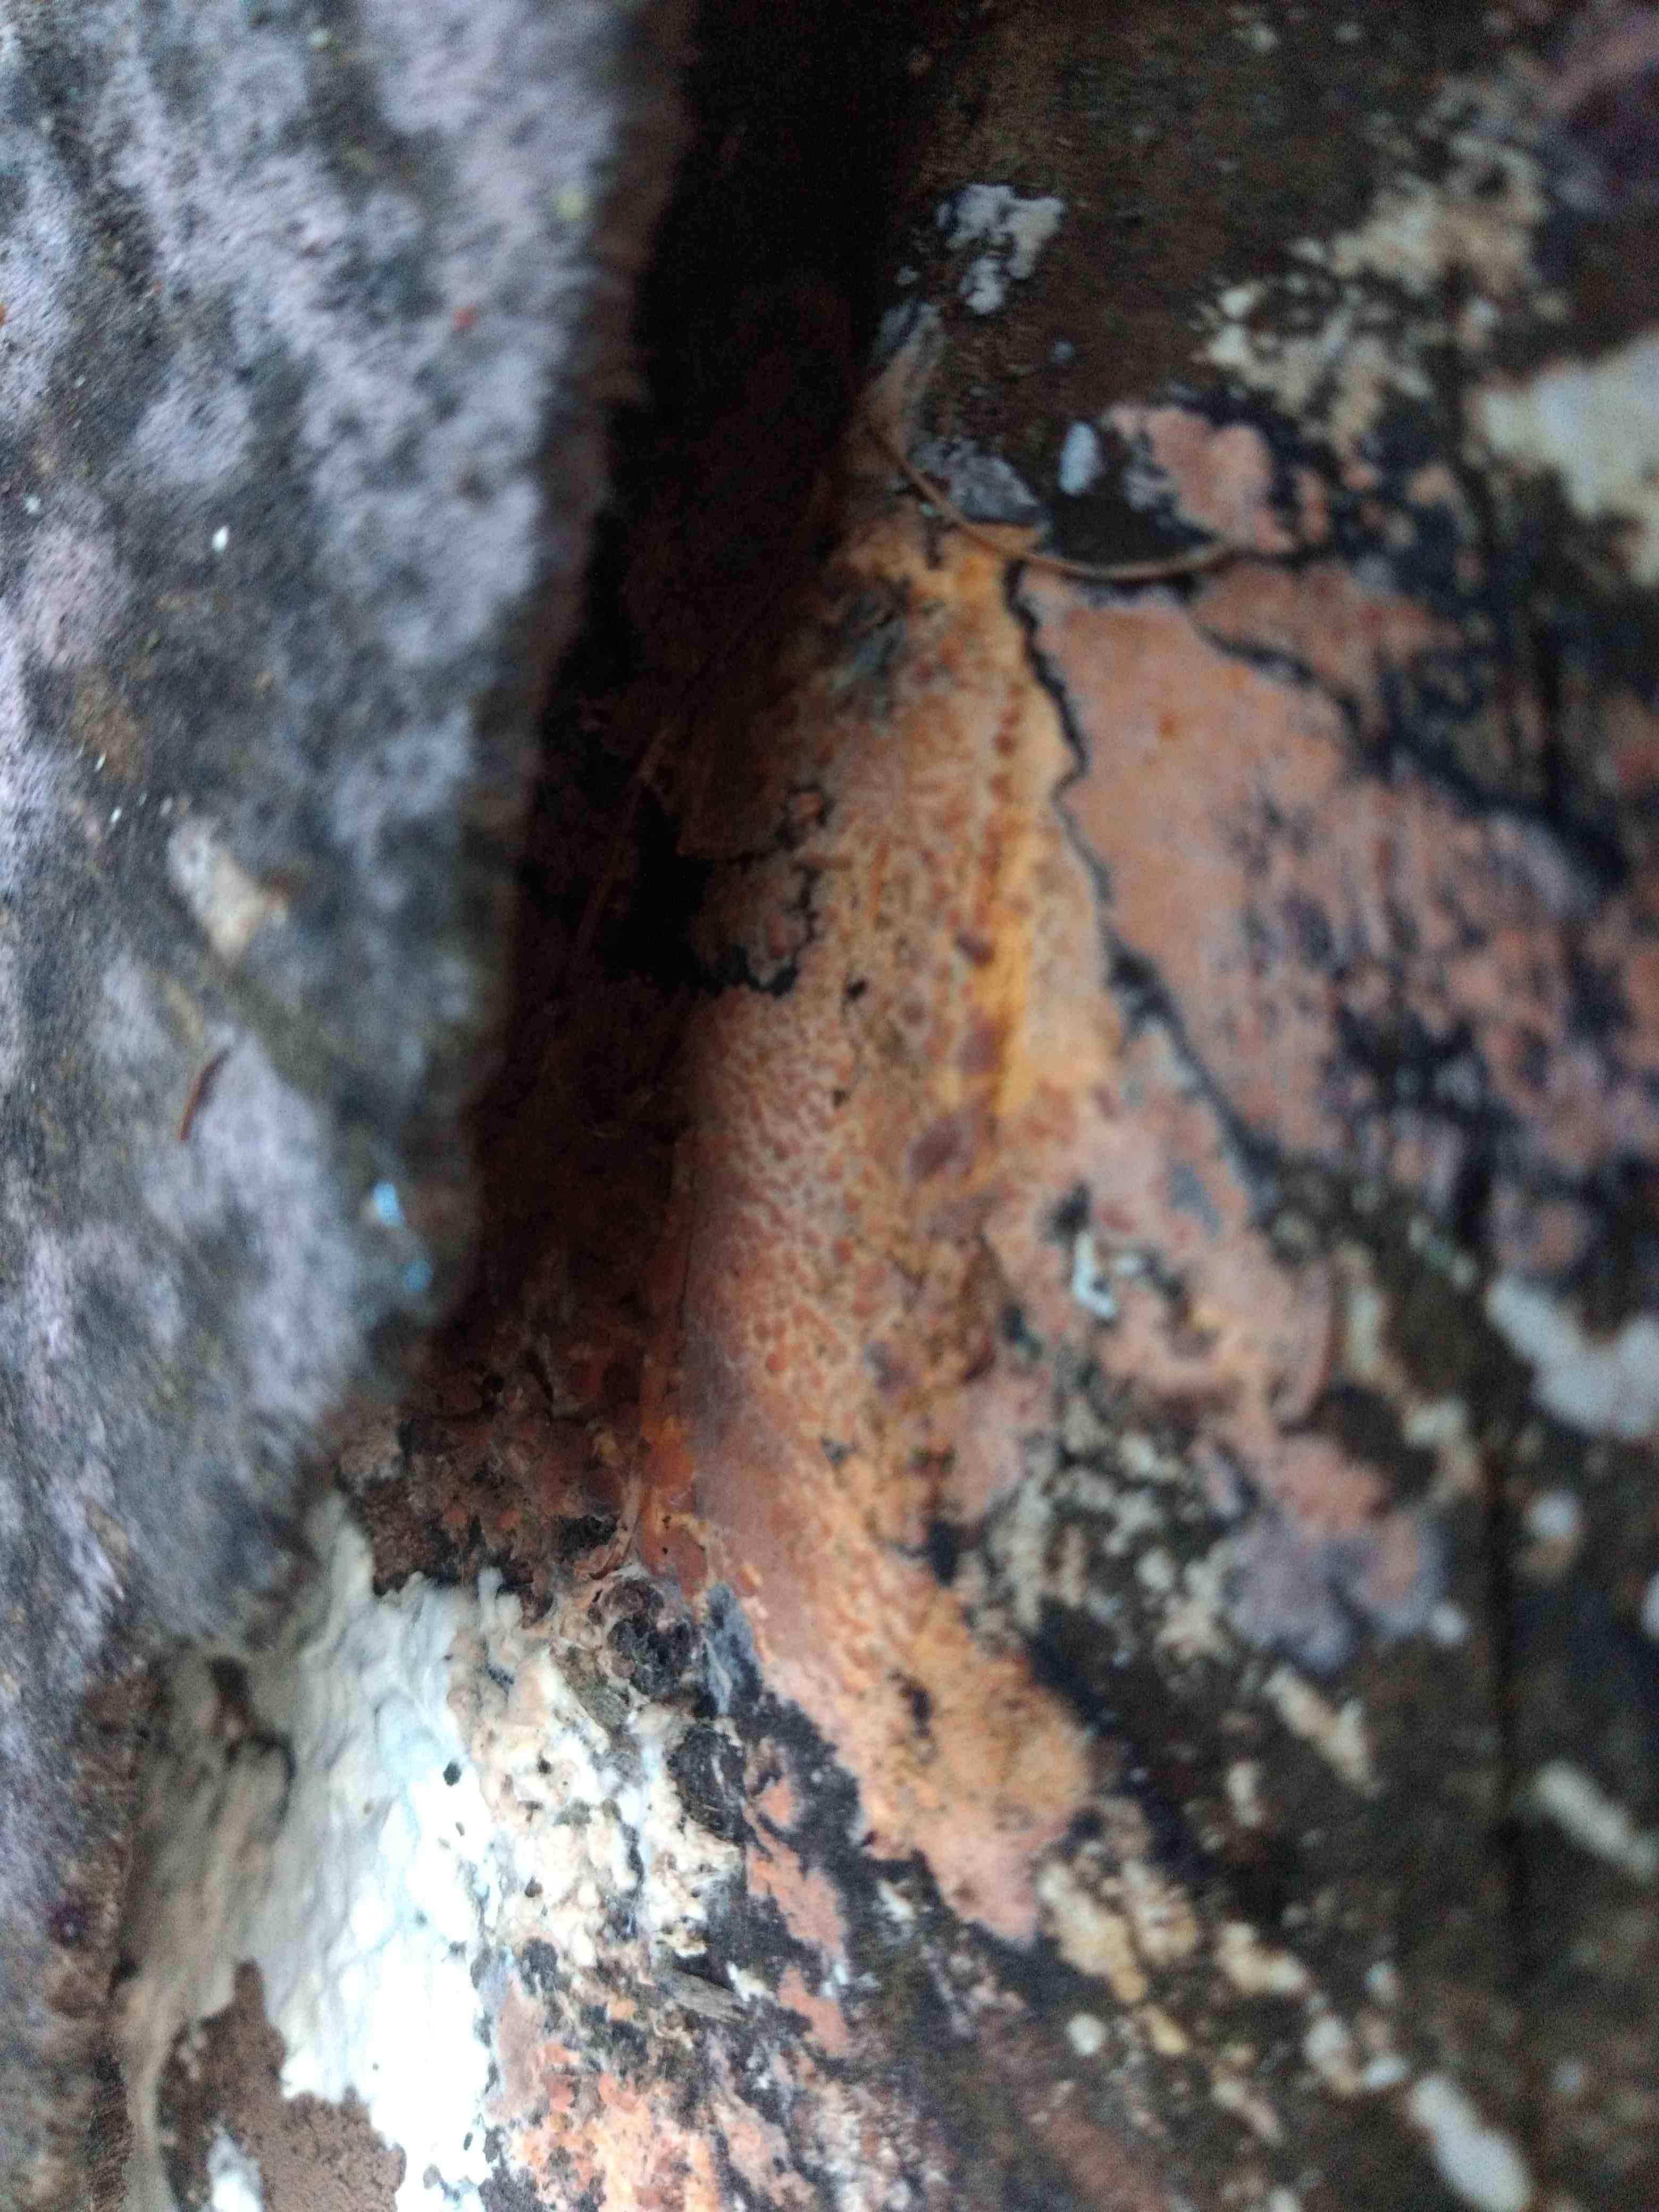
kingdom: Fungi
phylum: Basidiomycota
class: Agaricomycetes
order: Polyporales
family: Meruliaceae
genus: Phlebia
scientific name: Phlebia
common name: åresvamp
